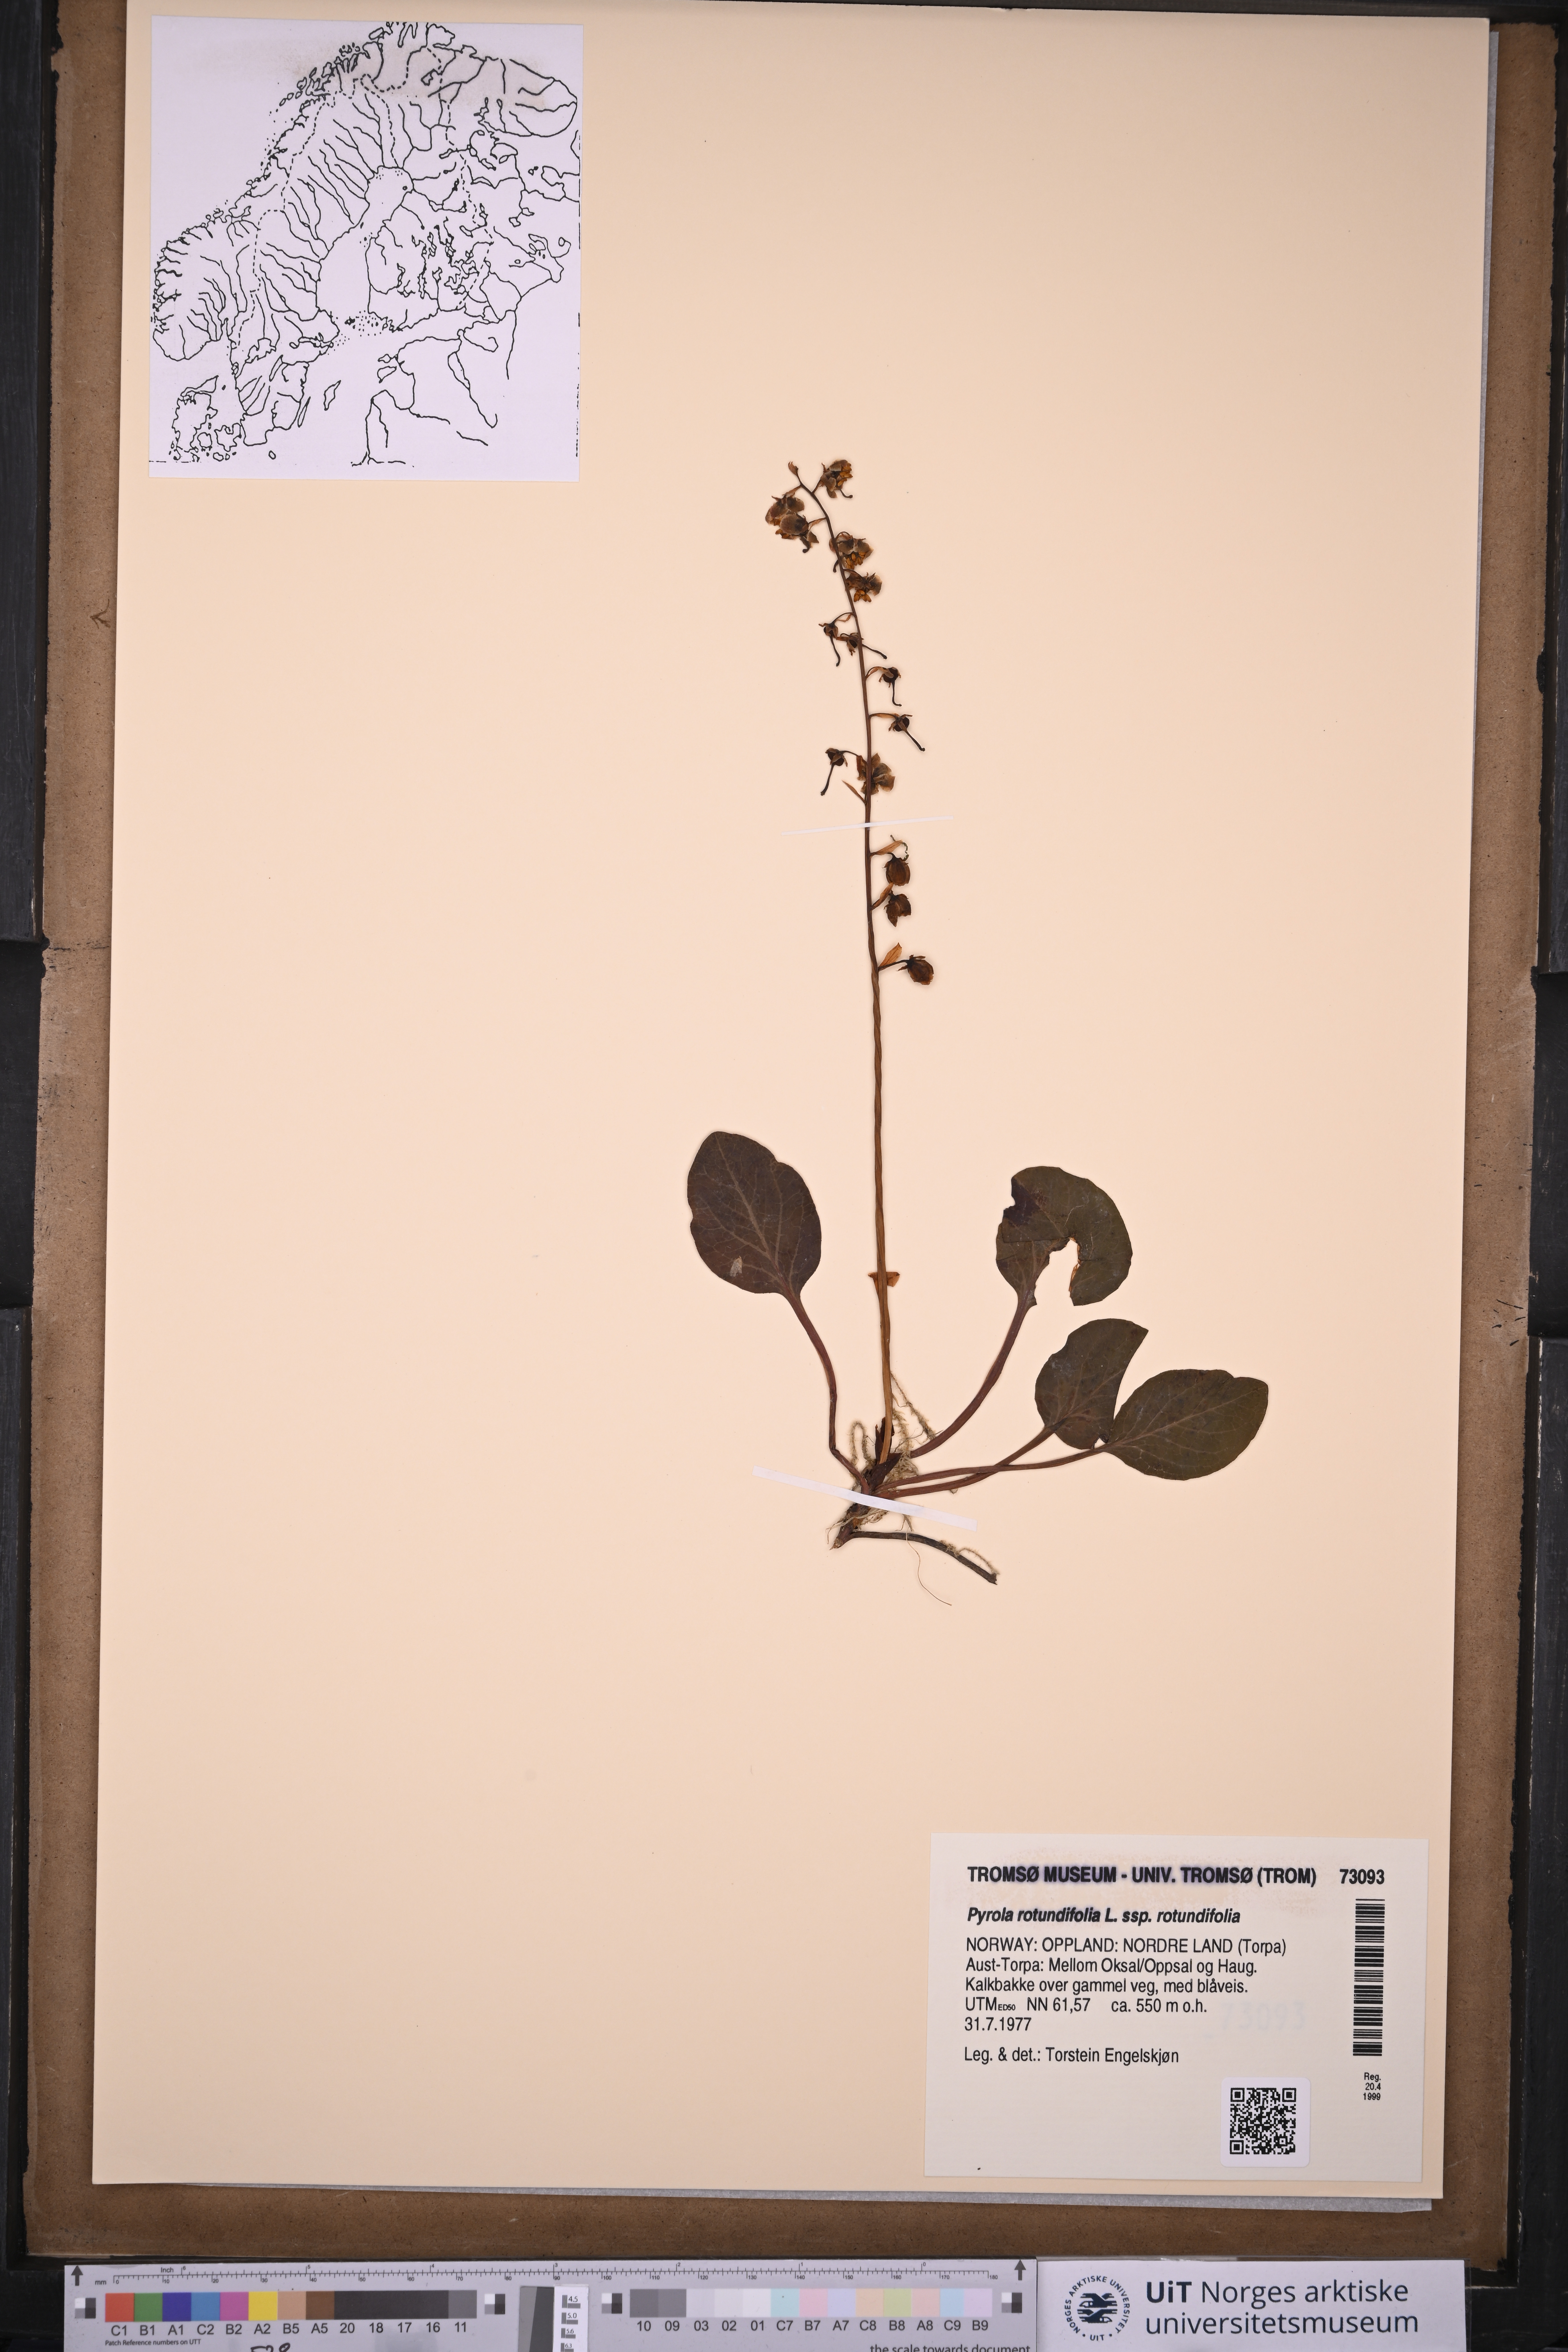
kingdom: Plantae
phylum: Tracheophyta
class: Magnoliopsida
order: Ericales
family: Ericaceae
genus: Pyrola
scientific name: Pyrola rotundifolia
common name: Round-leaved wintergreen
